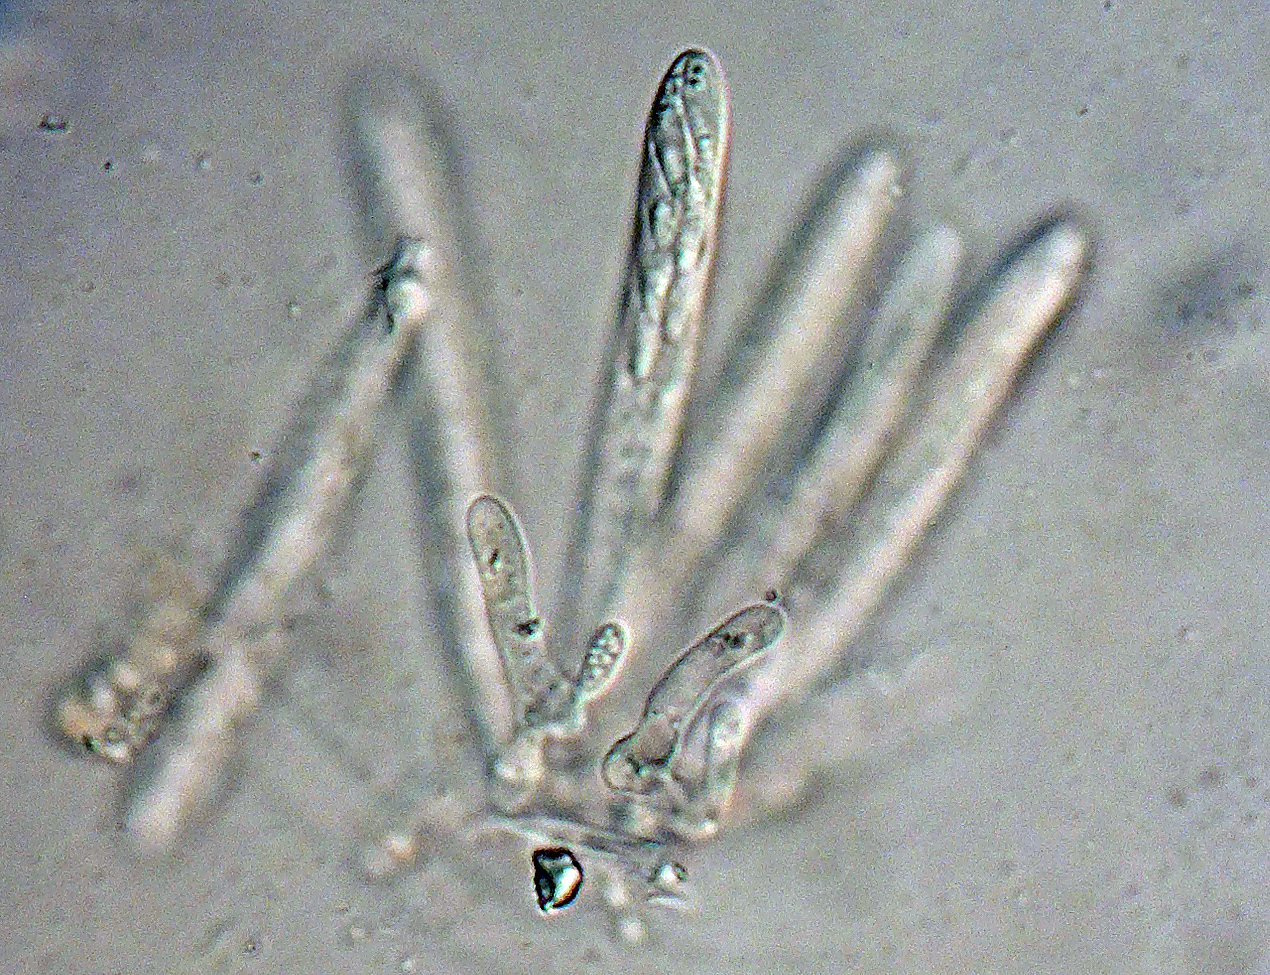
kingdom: Fungi
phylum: Ascomycota
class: Leotiomycetes
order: Helotiales
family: Lachnaceae
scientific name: Lachnaceae
